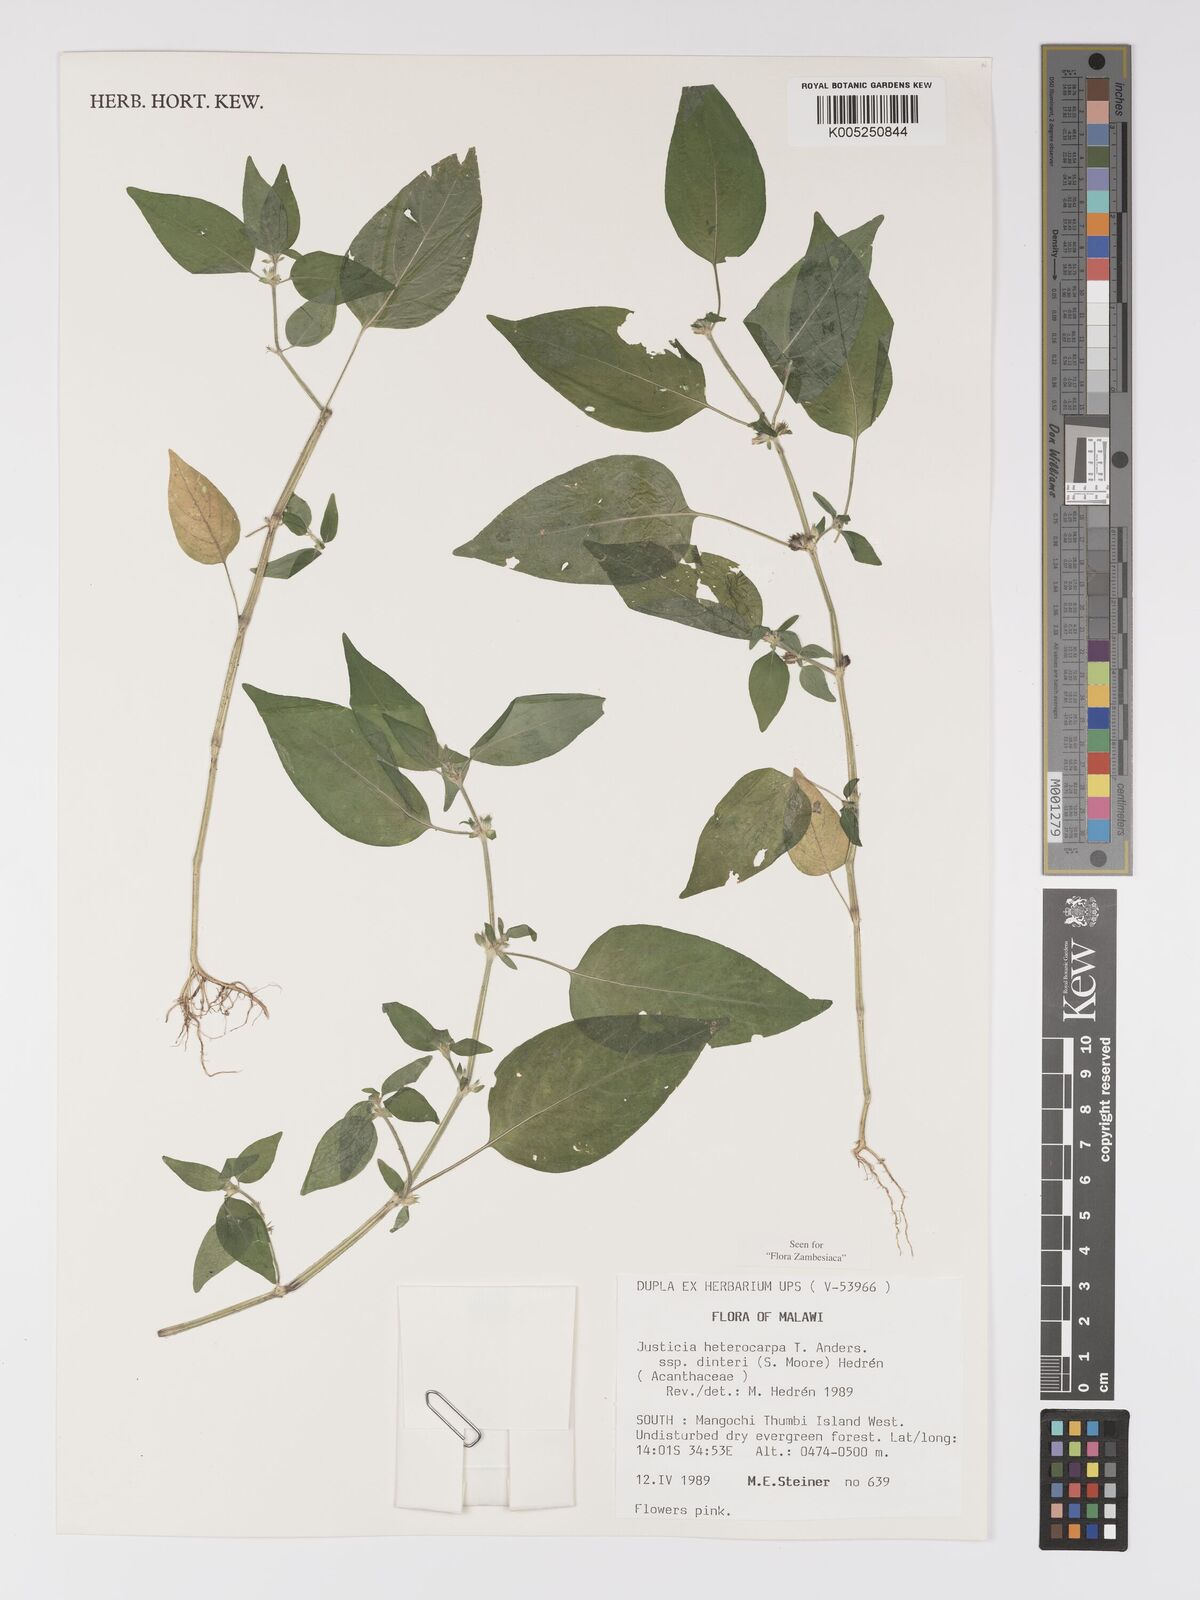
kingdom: Plantae
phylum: Tracheophyta
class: Magnoliopsida
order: Lamiales
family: Acanthaceae
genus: Justicia
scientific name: Justicia heterocarpa
